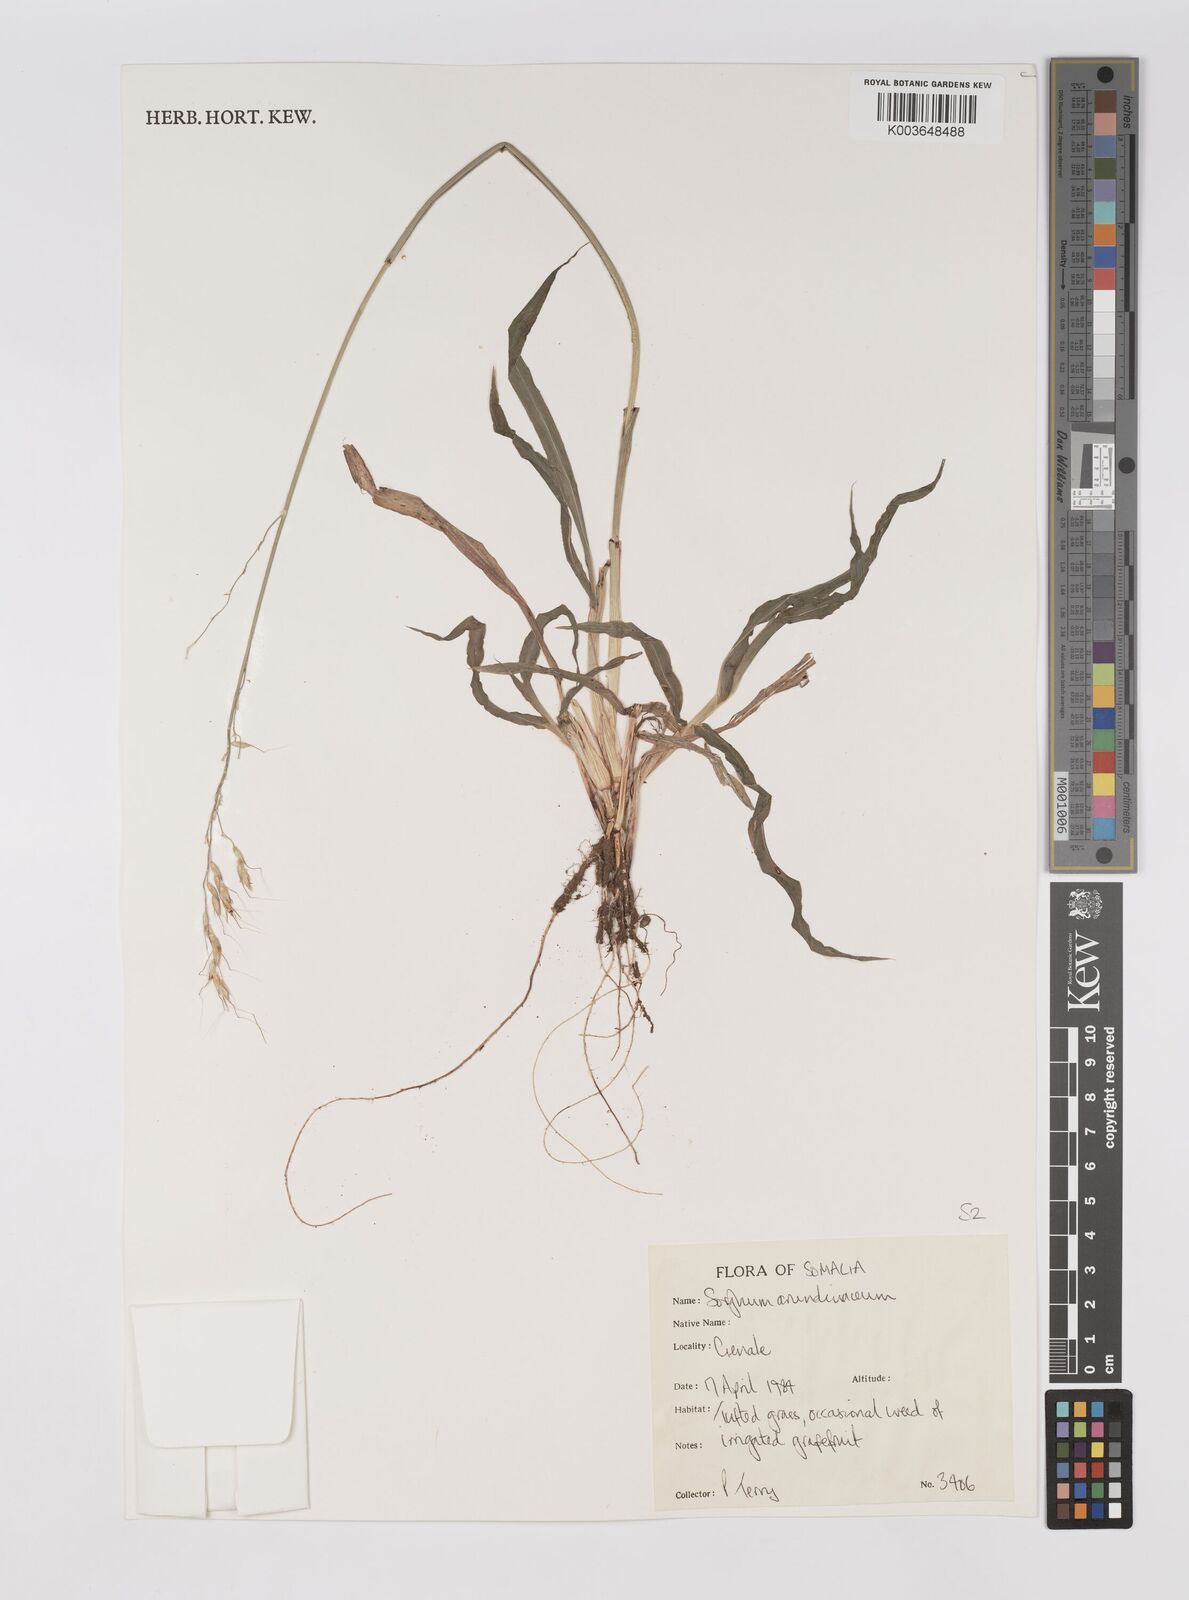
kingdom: Plantae
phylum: Tracheophyta
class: Liliopsida
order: Poales
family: Poaceae
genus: Sorghum
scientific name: Sorghum arundinaceum
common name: Sorghum
